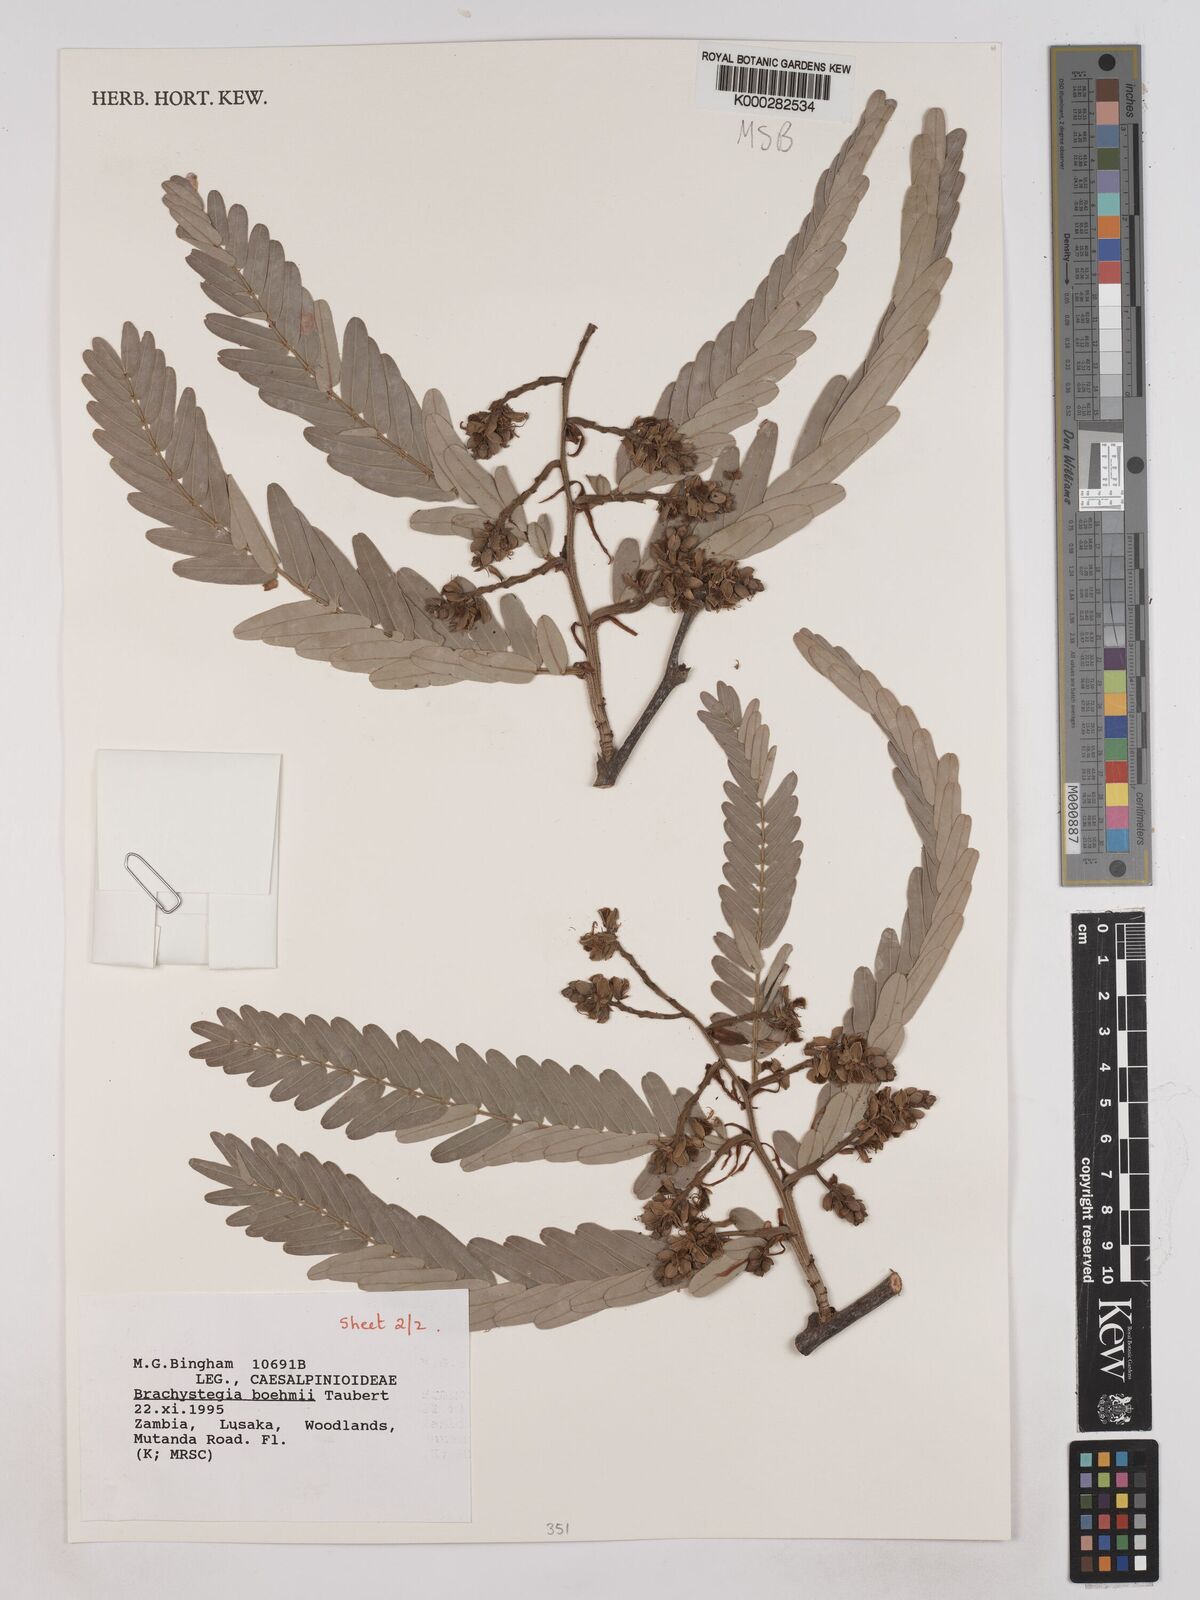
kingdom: Plantae
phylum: Tracheophyta
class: Magnoliopsida
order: Fabales
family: Fabaceae
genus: Brachystegia
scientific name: Brachystegia boehmii
